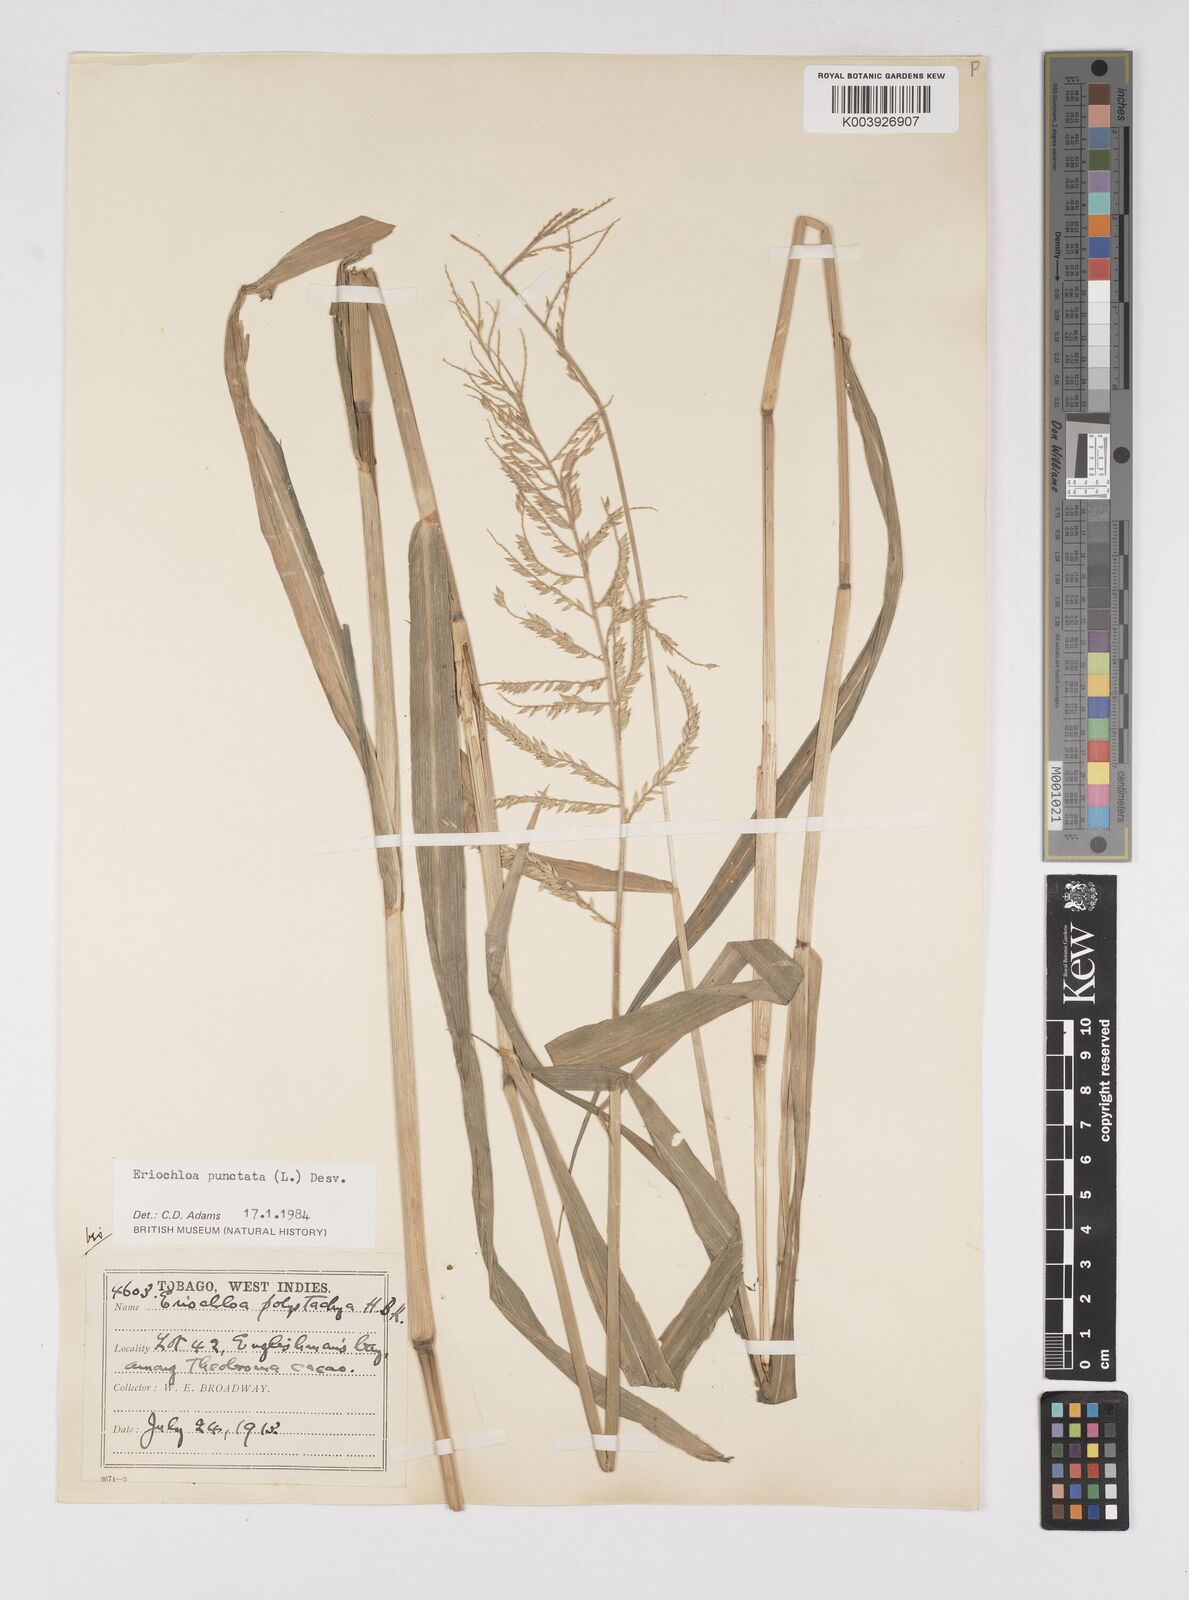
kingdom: Plantae
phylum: Tracheophyta
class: Liliopsida
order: Poales
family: Poaceae
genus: Eriochloa
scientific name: Eriochloa punctata
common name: Louisiana cupgrass
